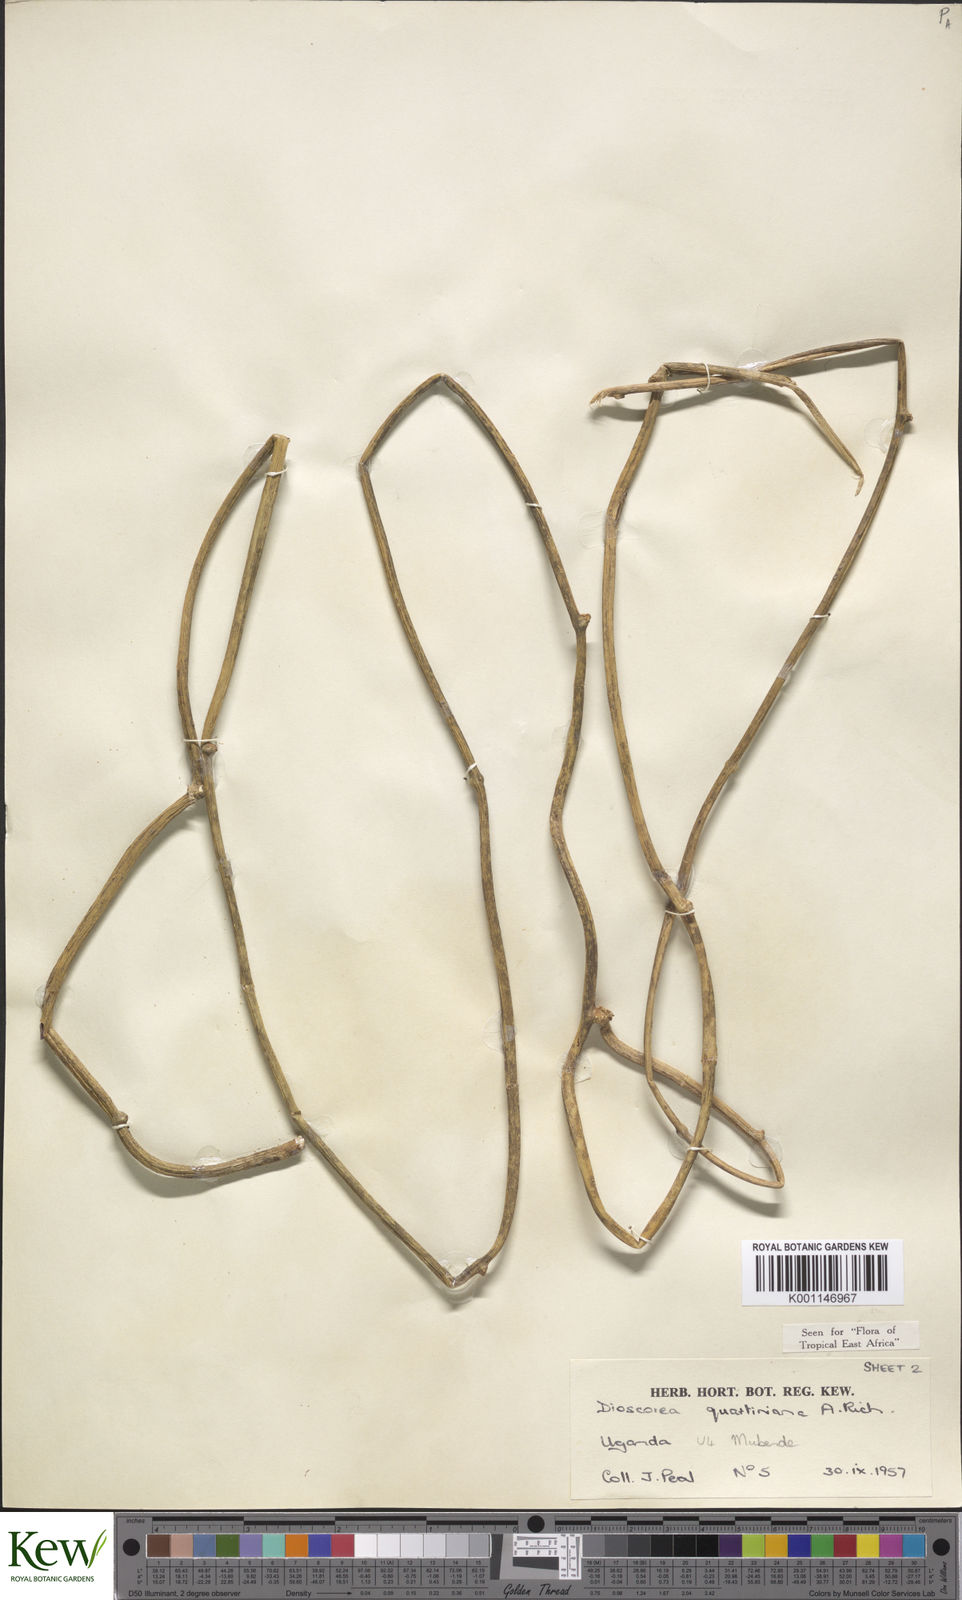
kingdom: Plantae
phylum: Tracheophyta
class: Liliopsida
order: Dioscoreales
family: Dioscoreaceae
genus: Dioscorea
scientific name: Dioscorea quartiniana
